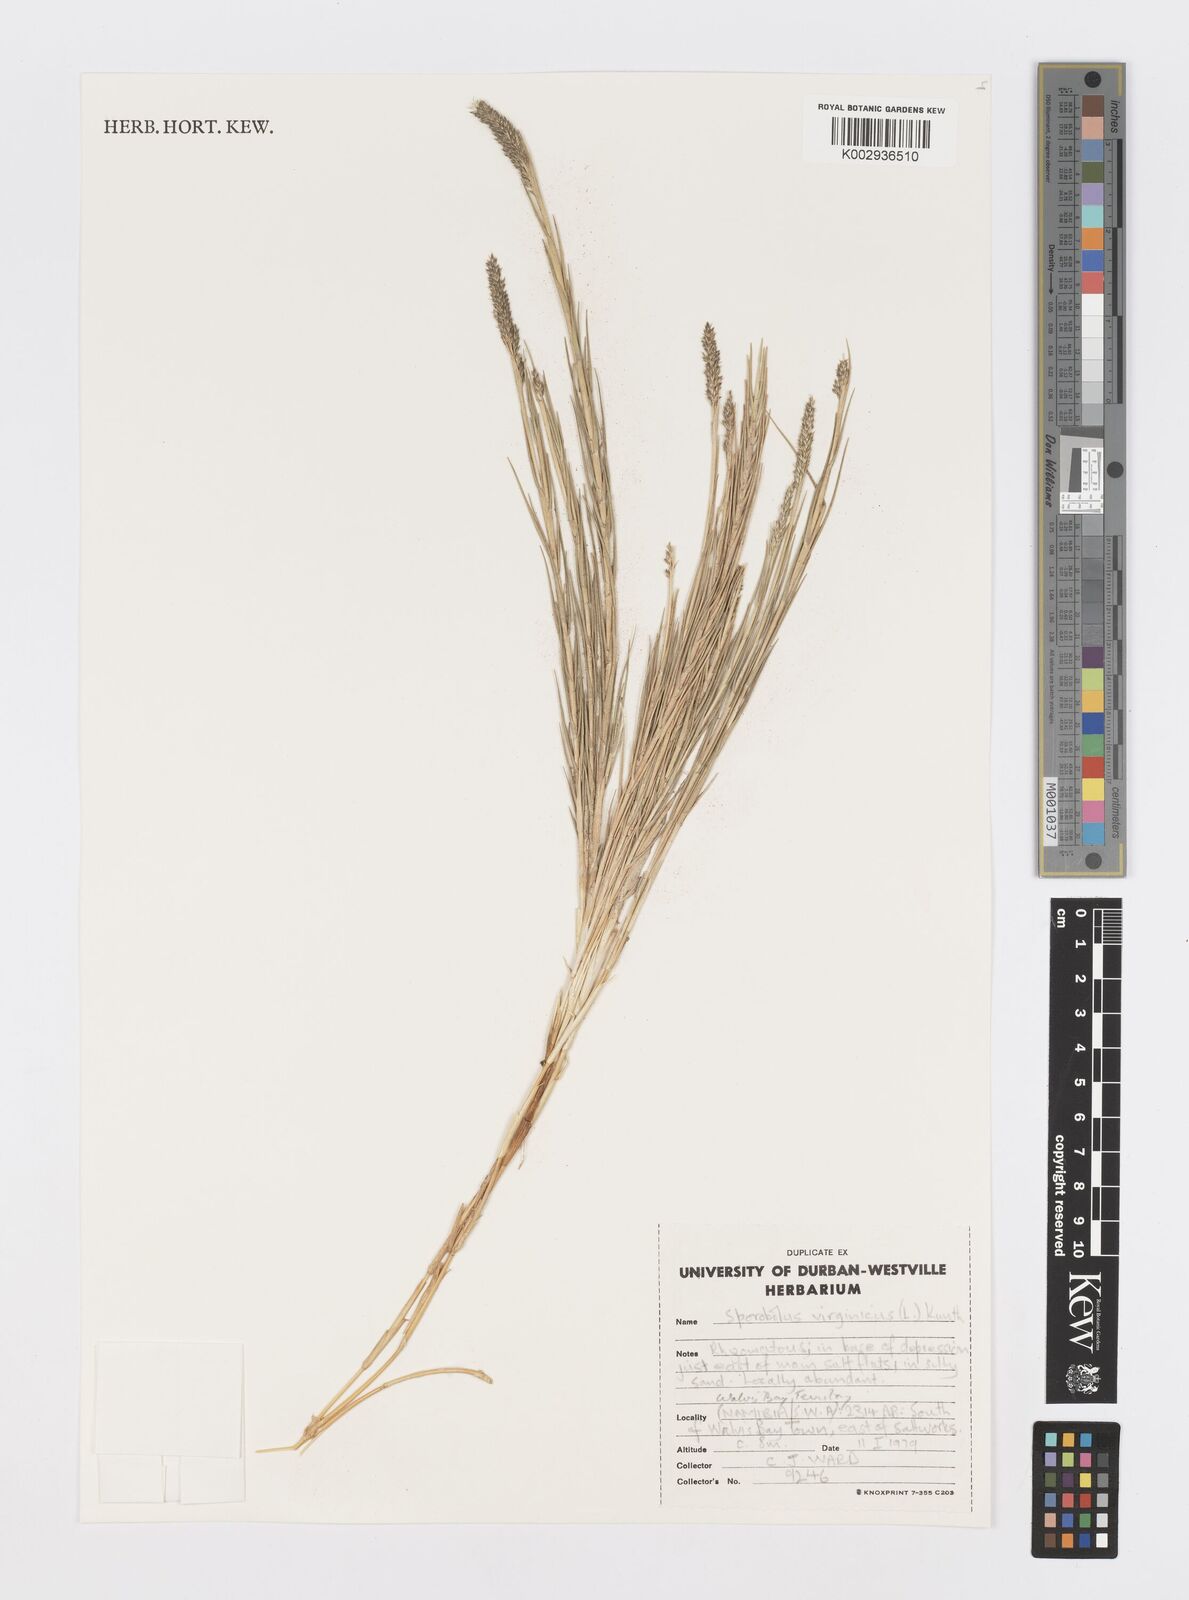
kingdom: Plantae
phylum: Tracheophyta
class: Liliopsida
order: Poales
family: Poaceae
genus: Sporobolus
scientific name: Sporobolus virginicus
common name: Beach dropseed
